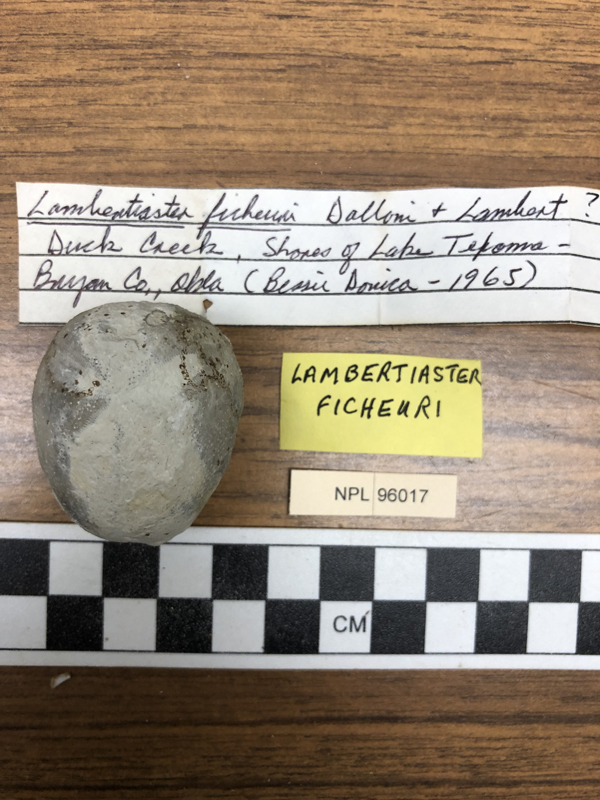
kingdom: Animalia
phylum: Echinodermata
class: Echinoidea
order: Spatangoida
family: Aeropsidae
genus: Lambertiaster
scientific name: Lambertiaster
